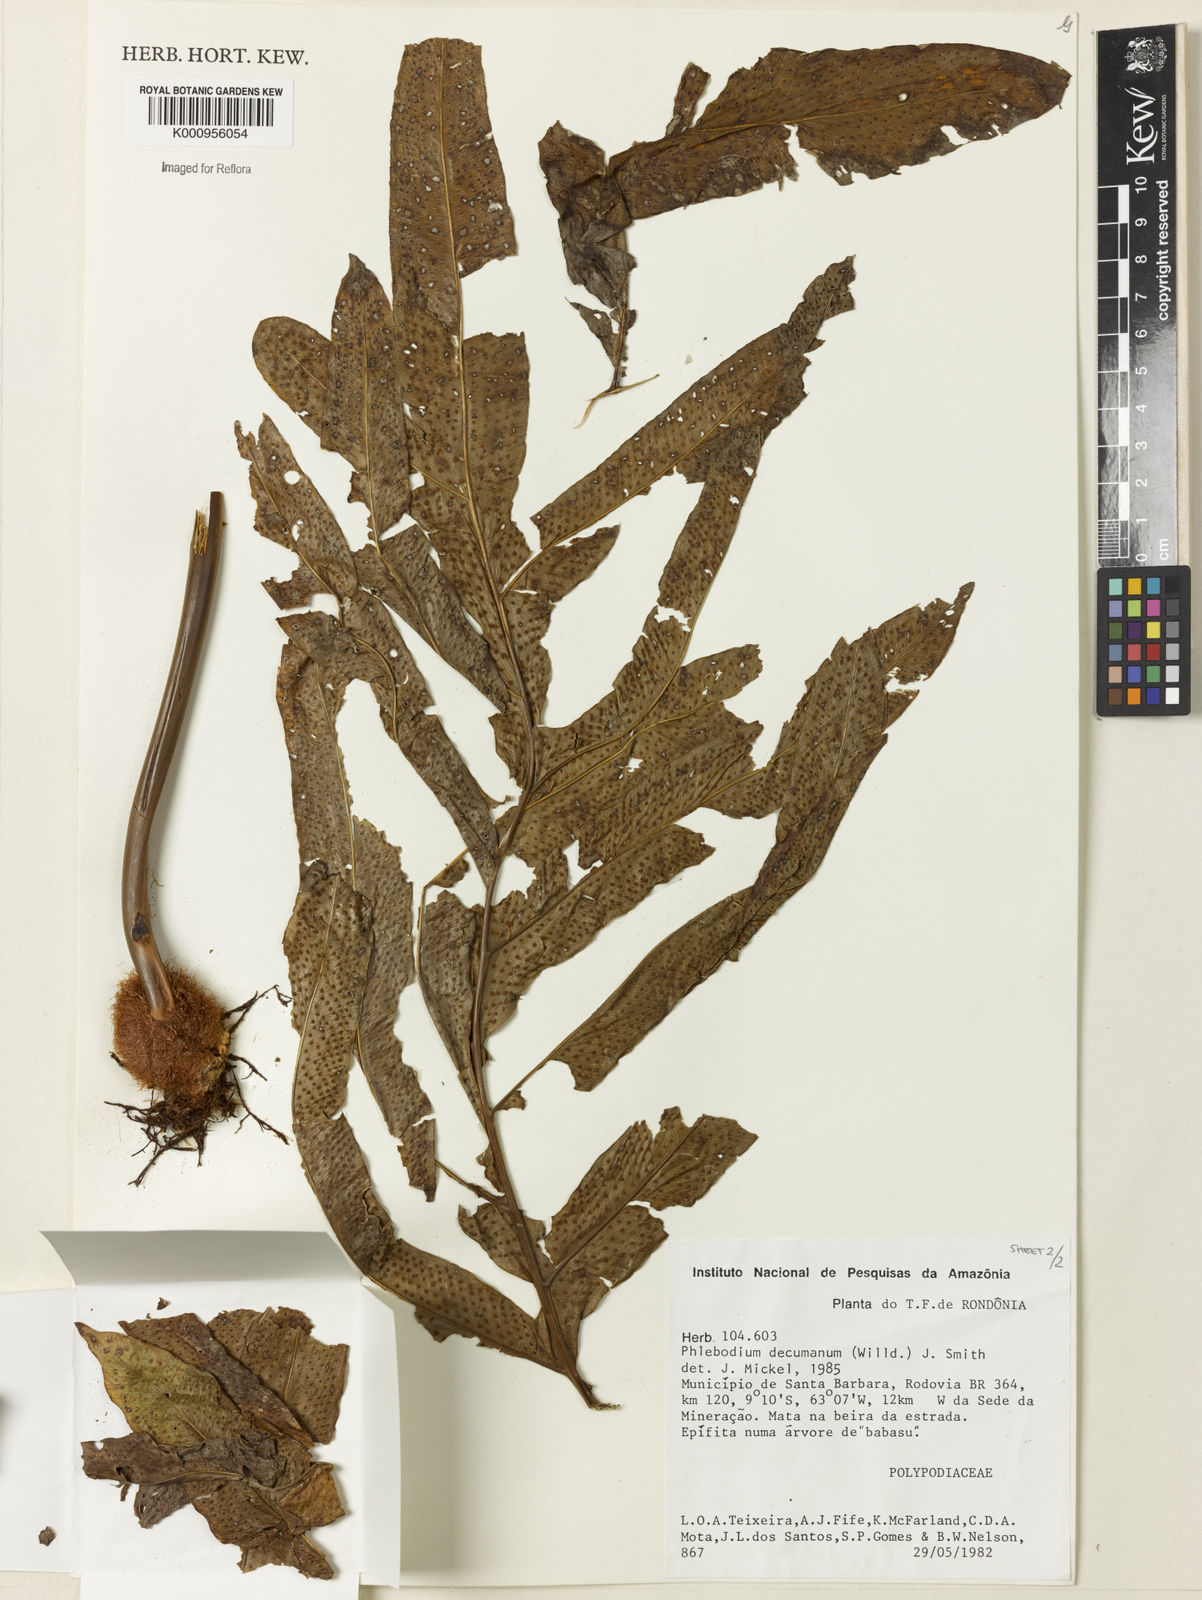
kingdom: Plantae
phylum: Tracheophyta
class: Polypodiopsida
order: Polypodiales
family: Polypodiaceae
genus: Phlebodium
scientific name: Phlebodium decumanum
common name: Golden polypod
